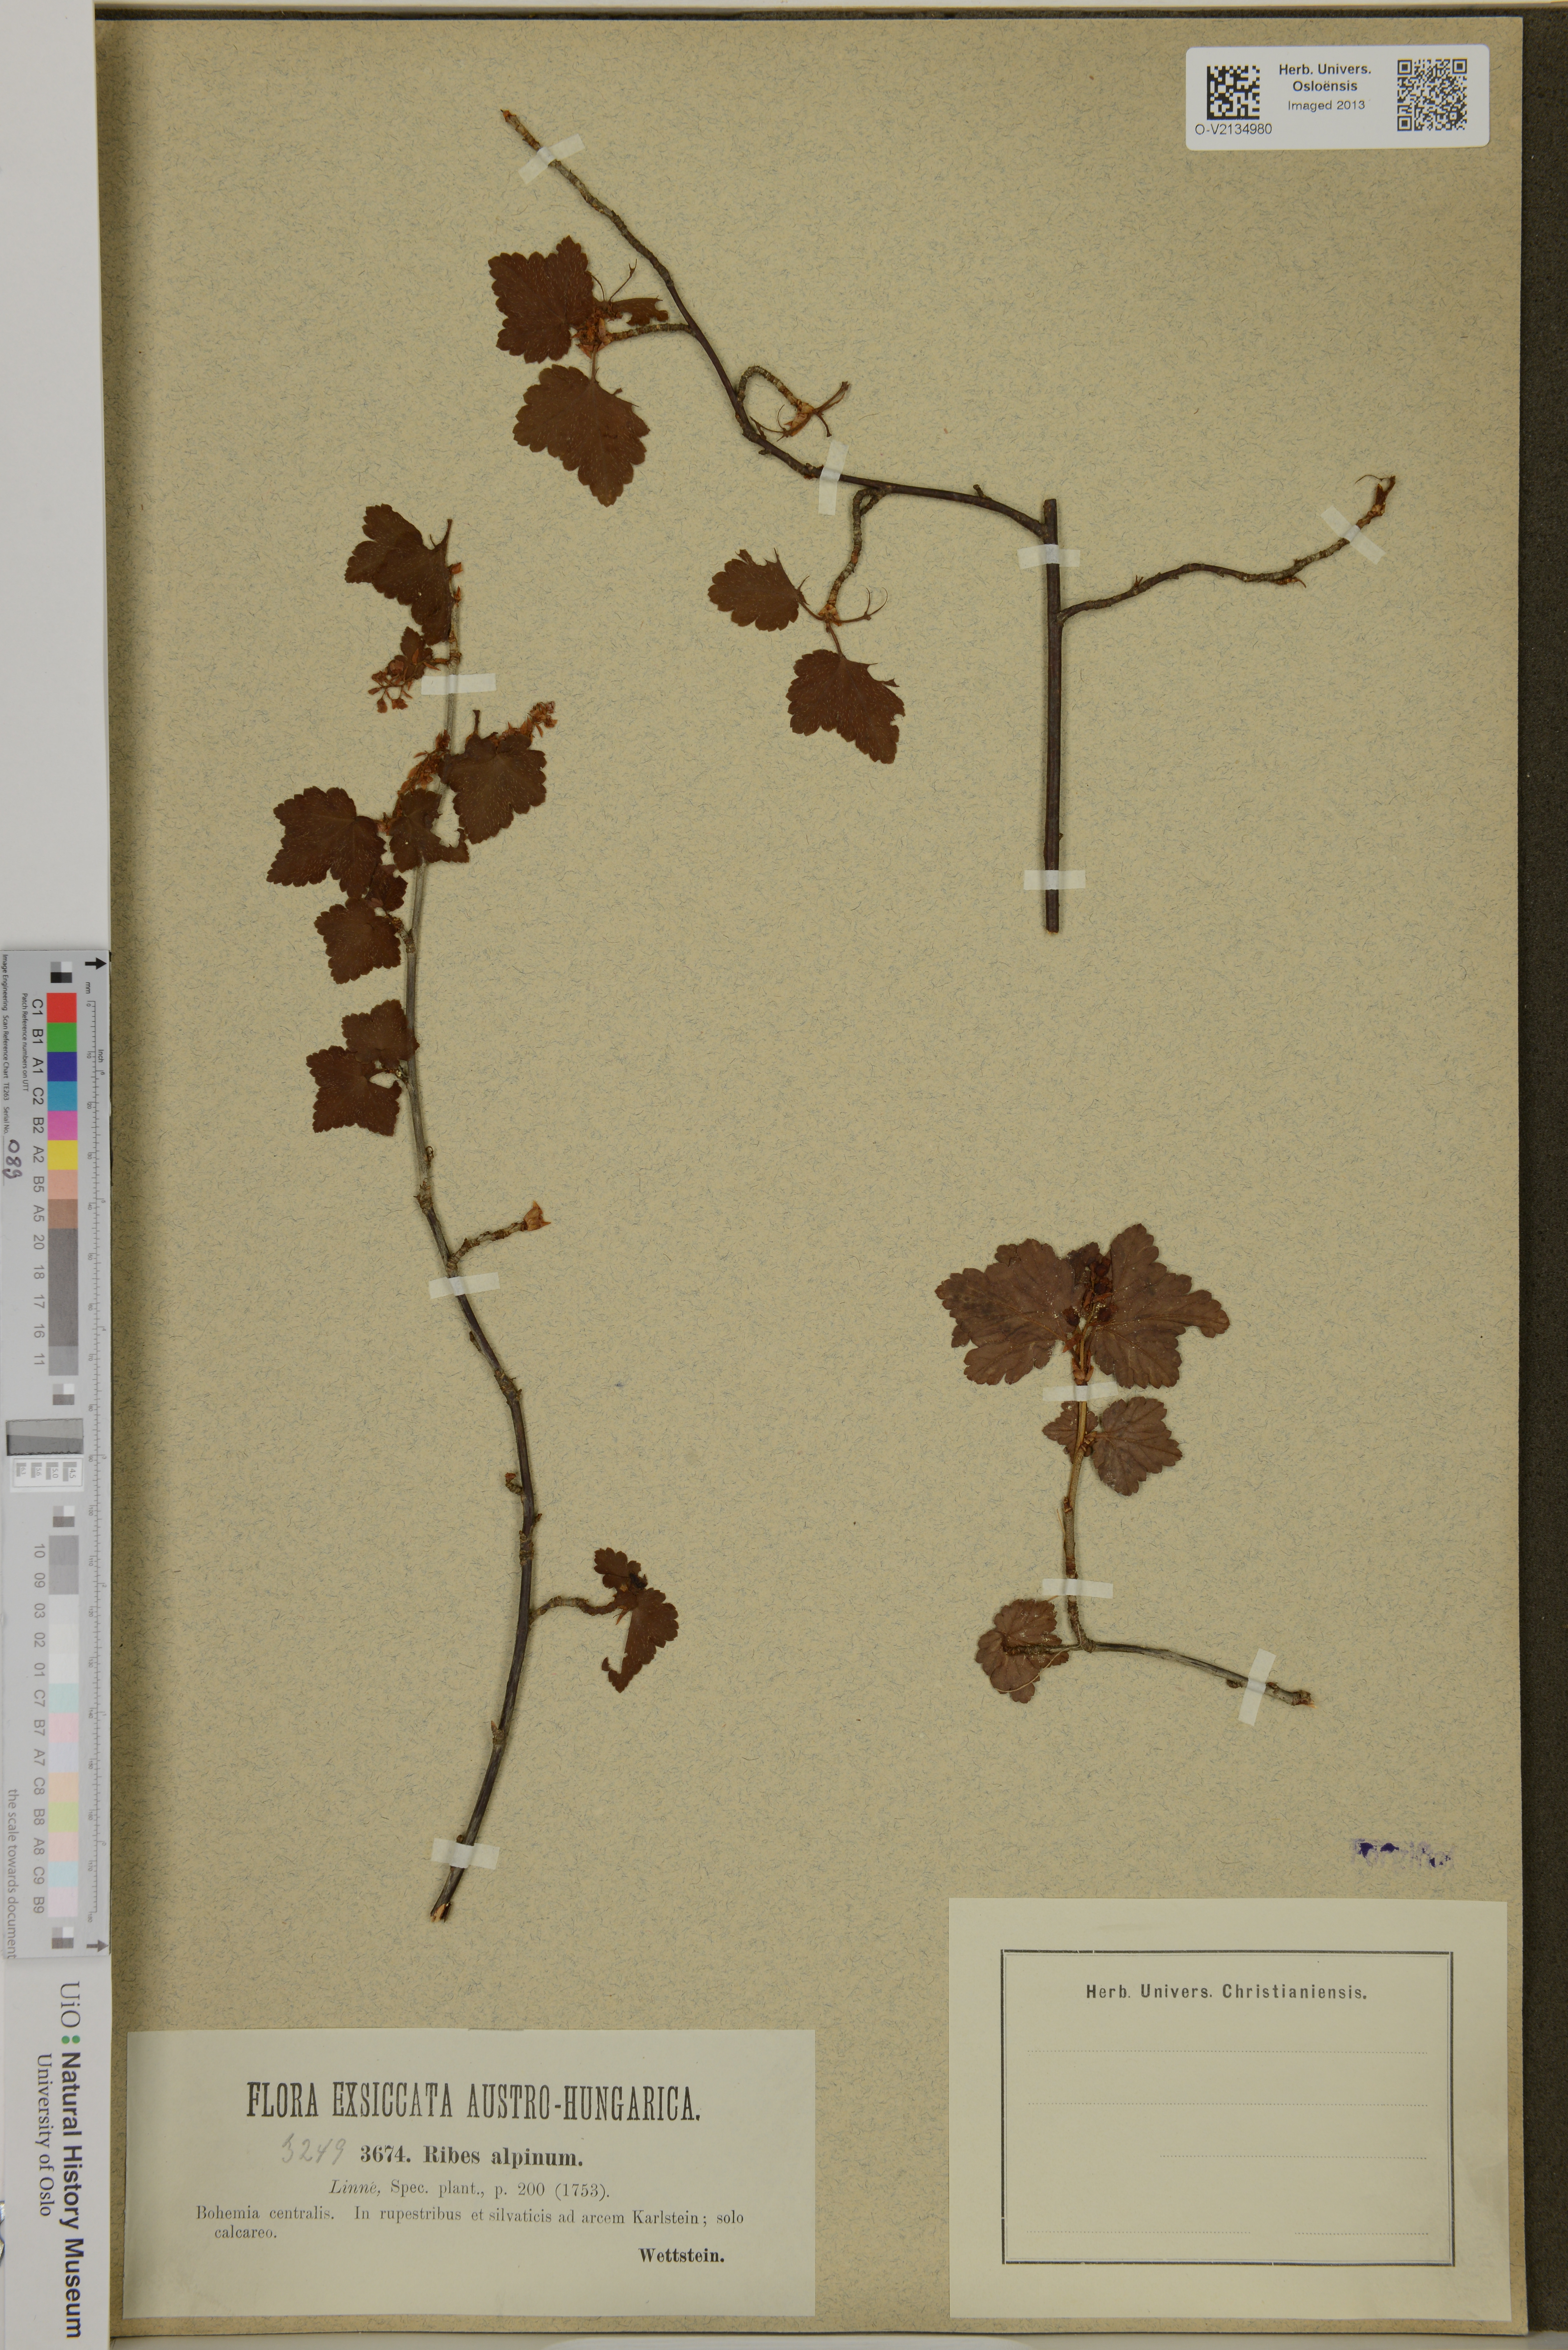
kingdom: Plantae
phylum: Tracheophyta
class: Magnoliopsida
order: Saxifragales
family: Grossulariaceae
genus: Ribes
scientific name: Ribes alpinum
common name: Alpine currant
